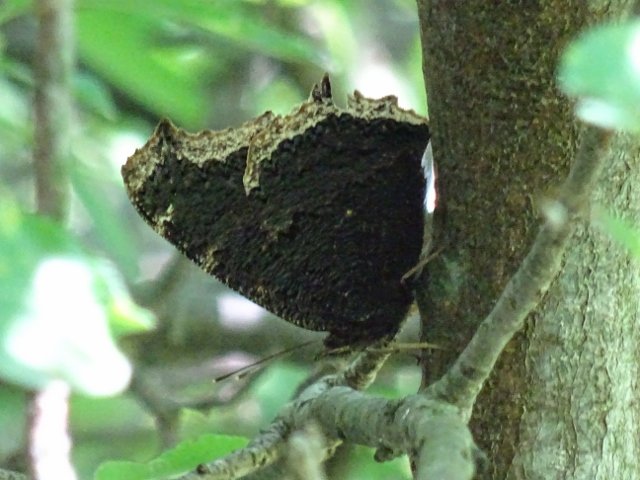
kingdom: Animalia
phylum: Arthropoda
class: Insecta
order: Lepidoptera
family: Nymphalidae
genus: Nymphalis
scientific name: Nymphalis antiopa
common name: Mourning Cloak
